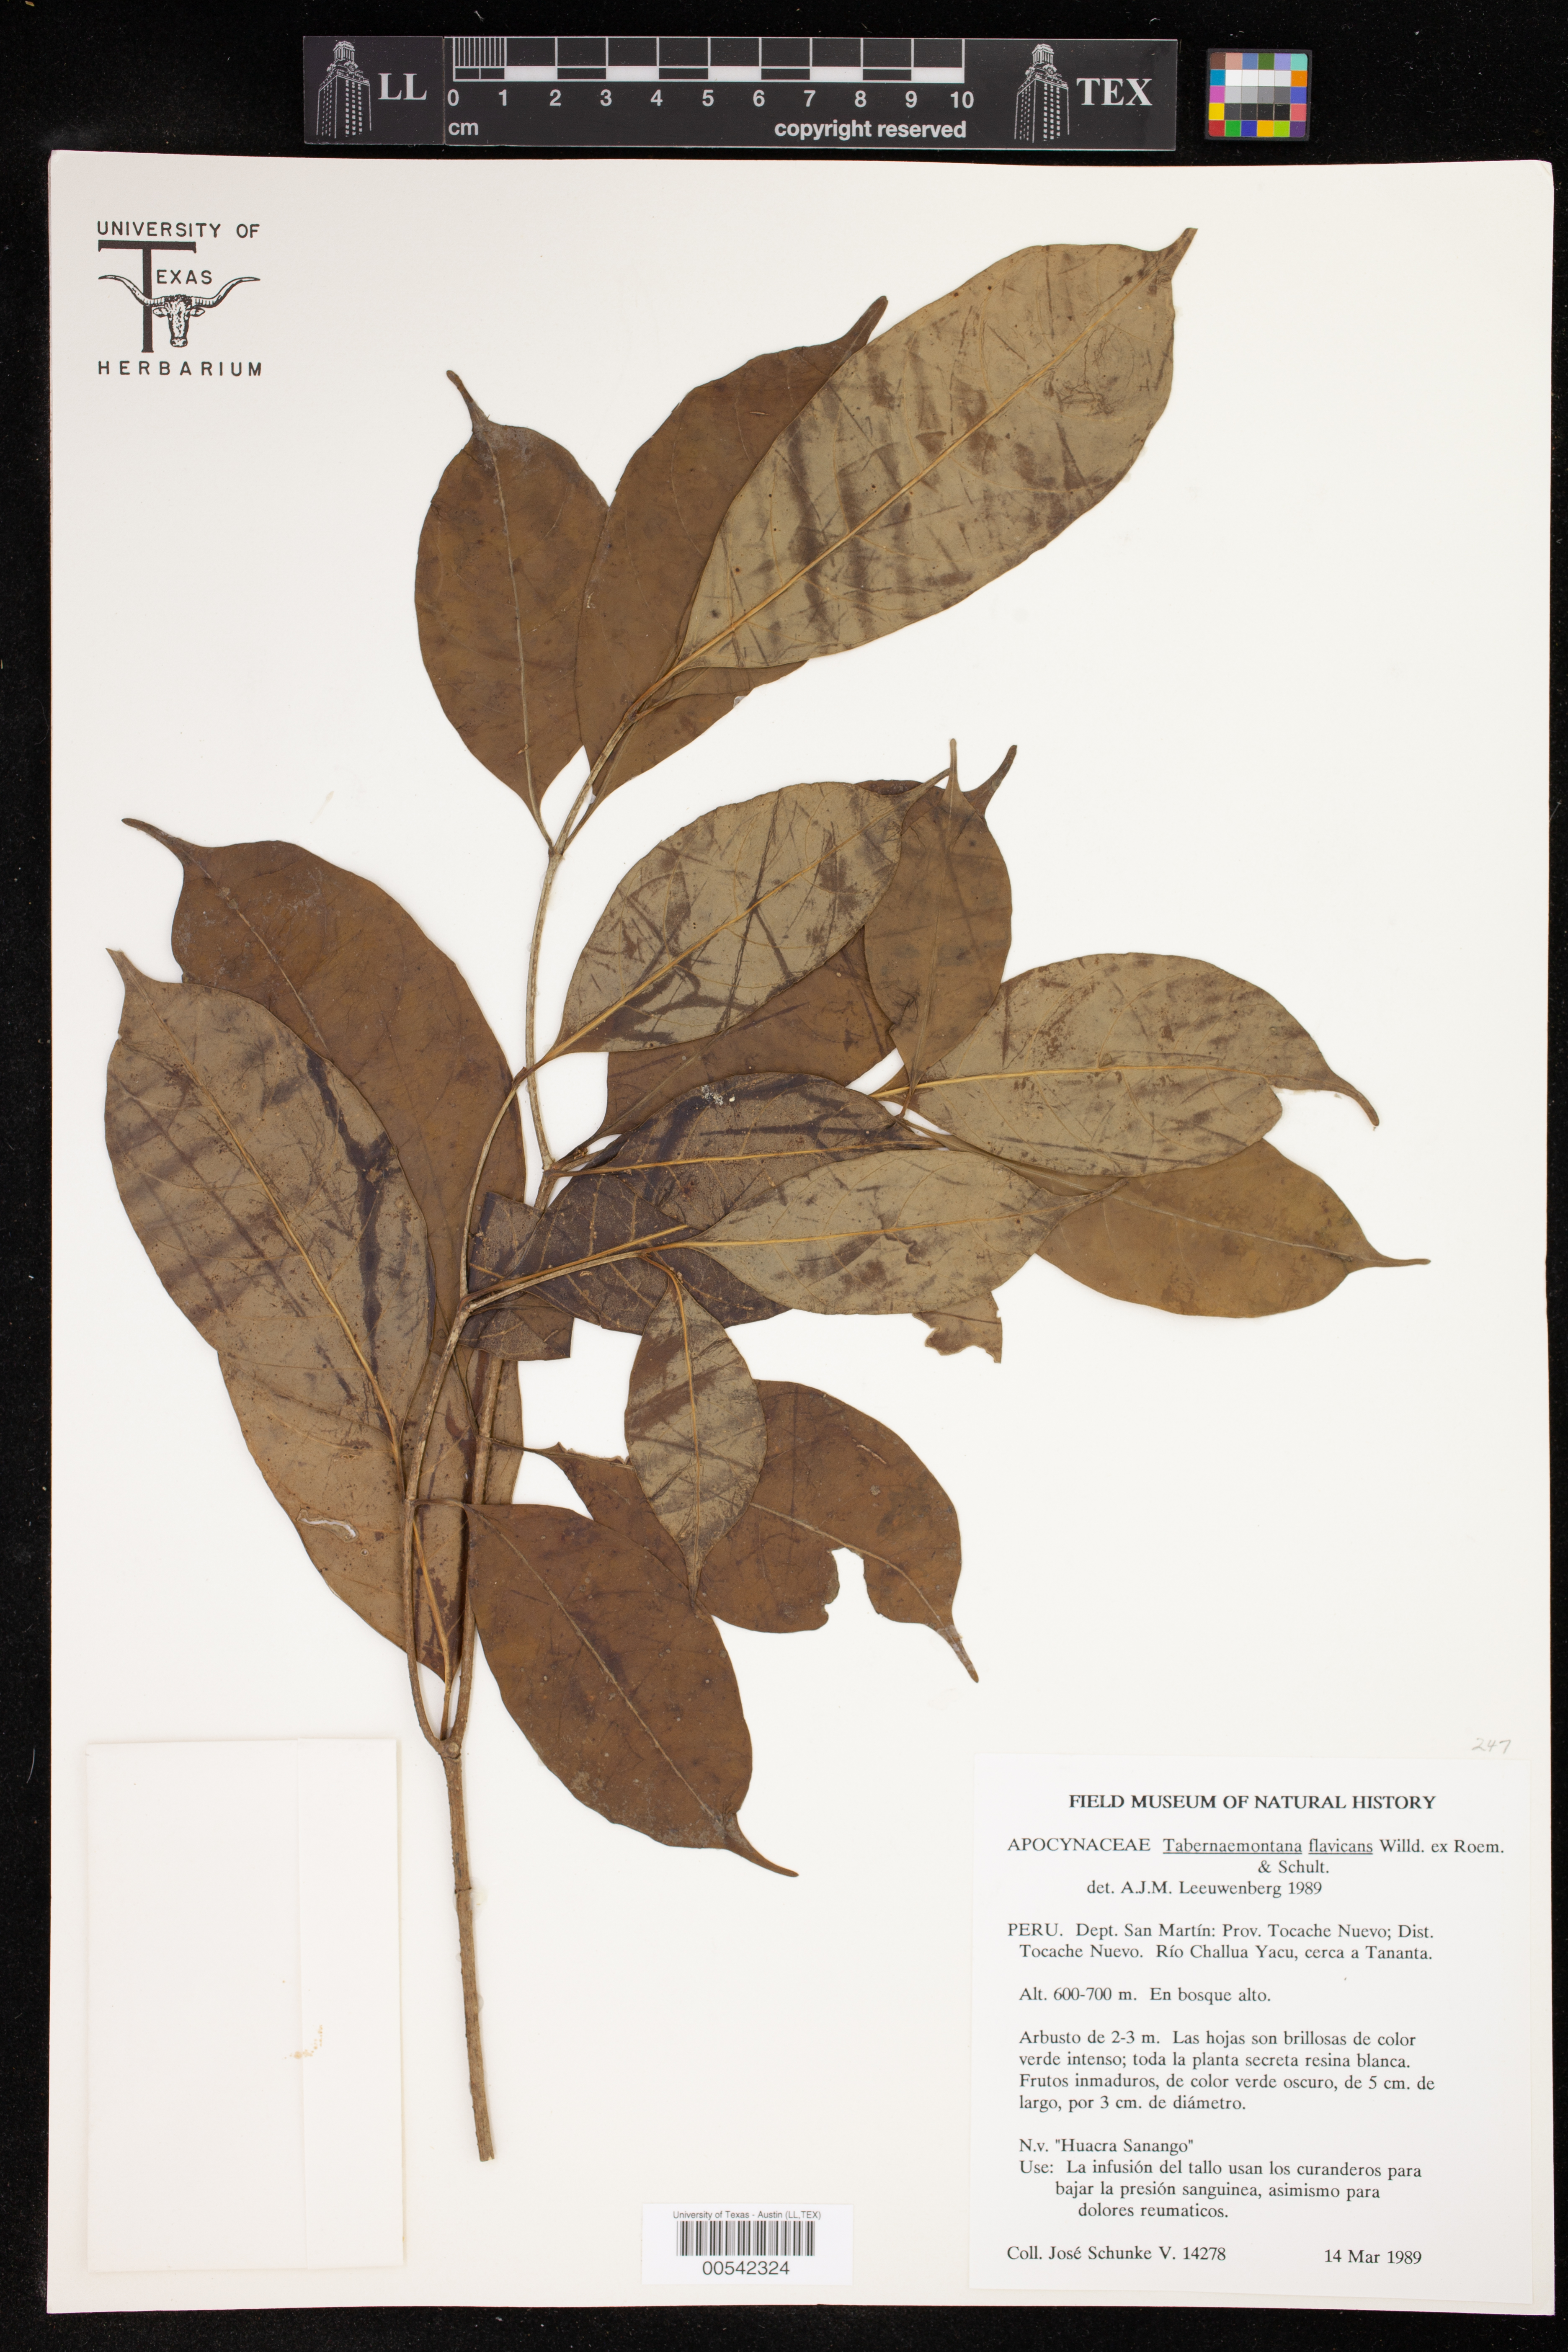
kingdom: Plantae
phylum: Tracheophyta
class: Magnoliopsida
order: Gentianales
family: Apocynaceae
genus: Tabernaemontana
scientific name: Tabernaemontana flavicans
